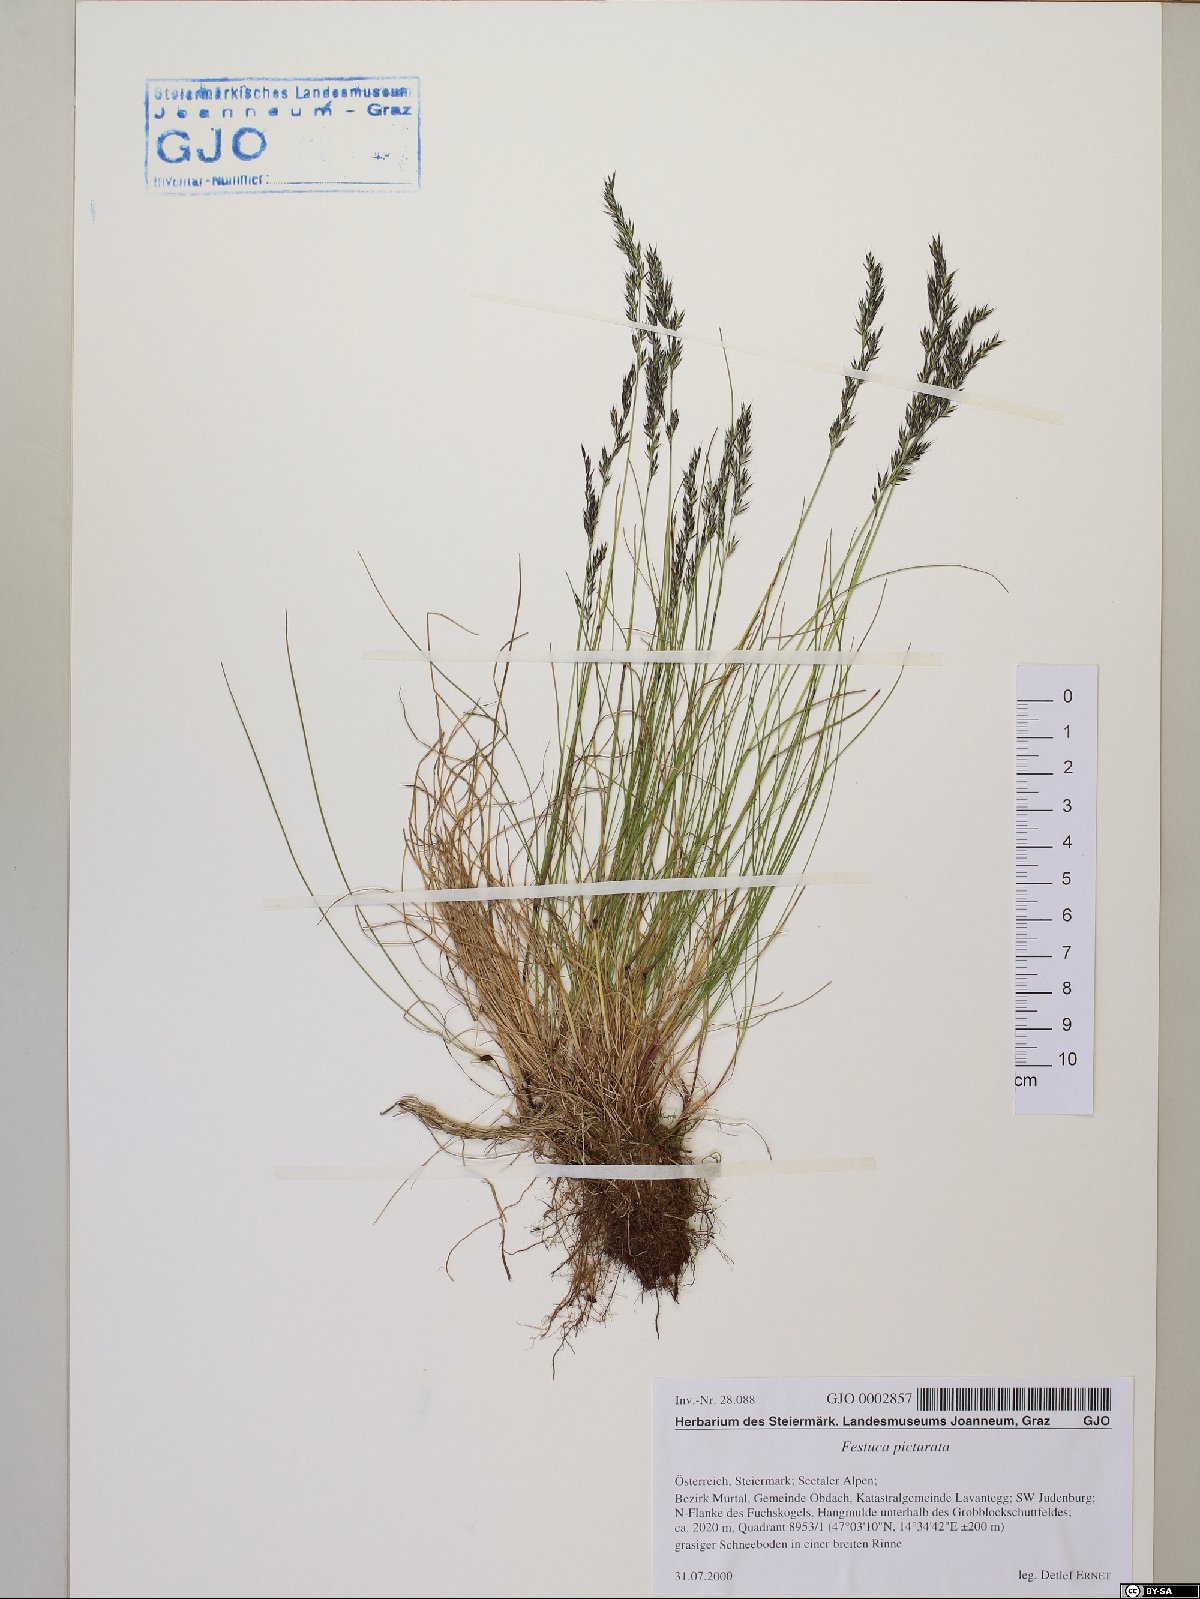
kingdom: Plantae
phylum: Tracheophyta
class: Liliopsida
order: Poales
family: Poaceae
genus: Festuca
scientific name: Festuca picturata
